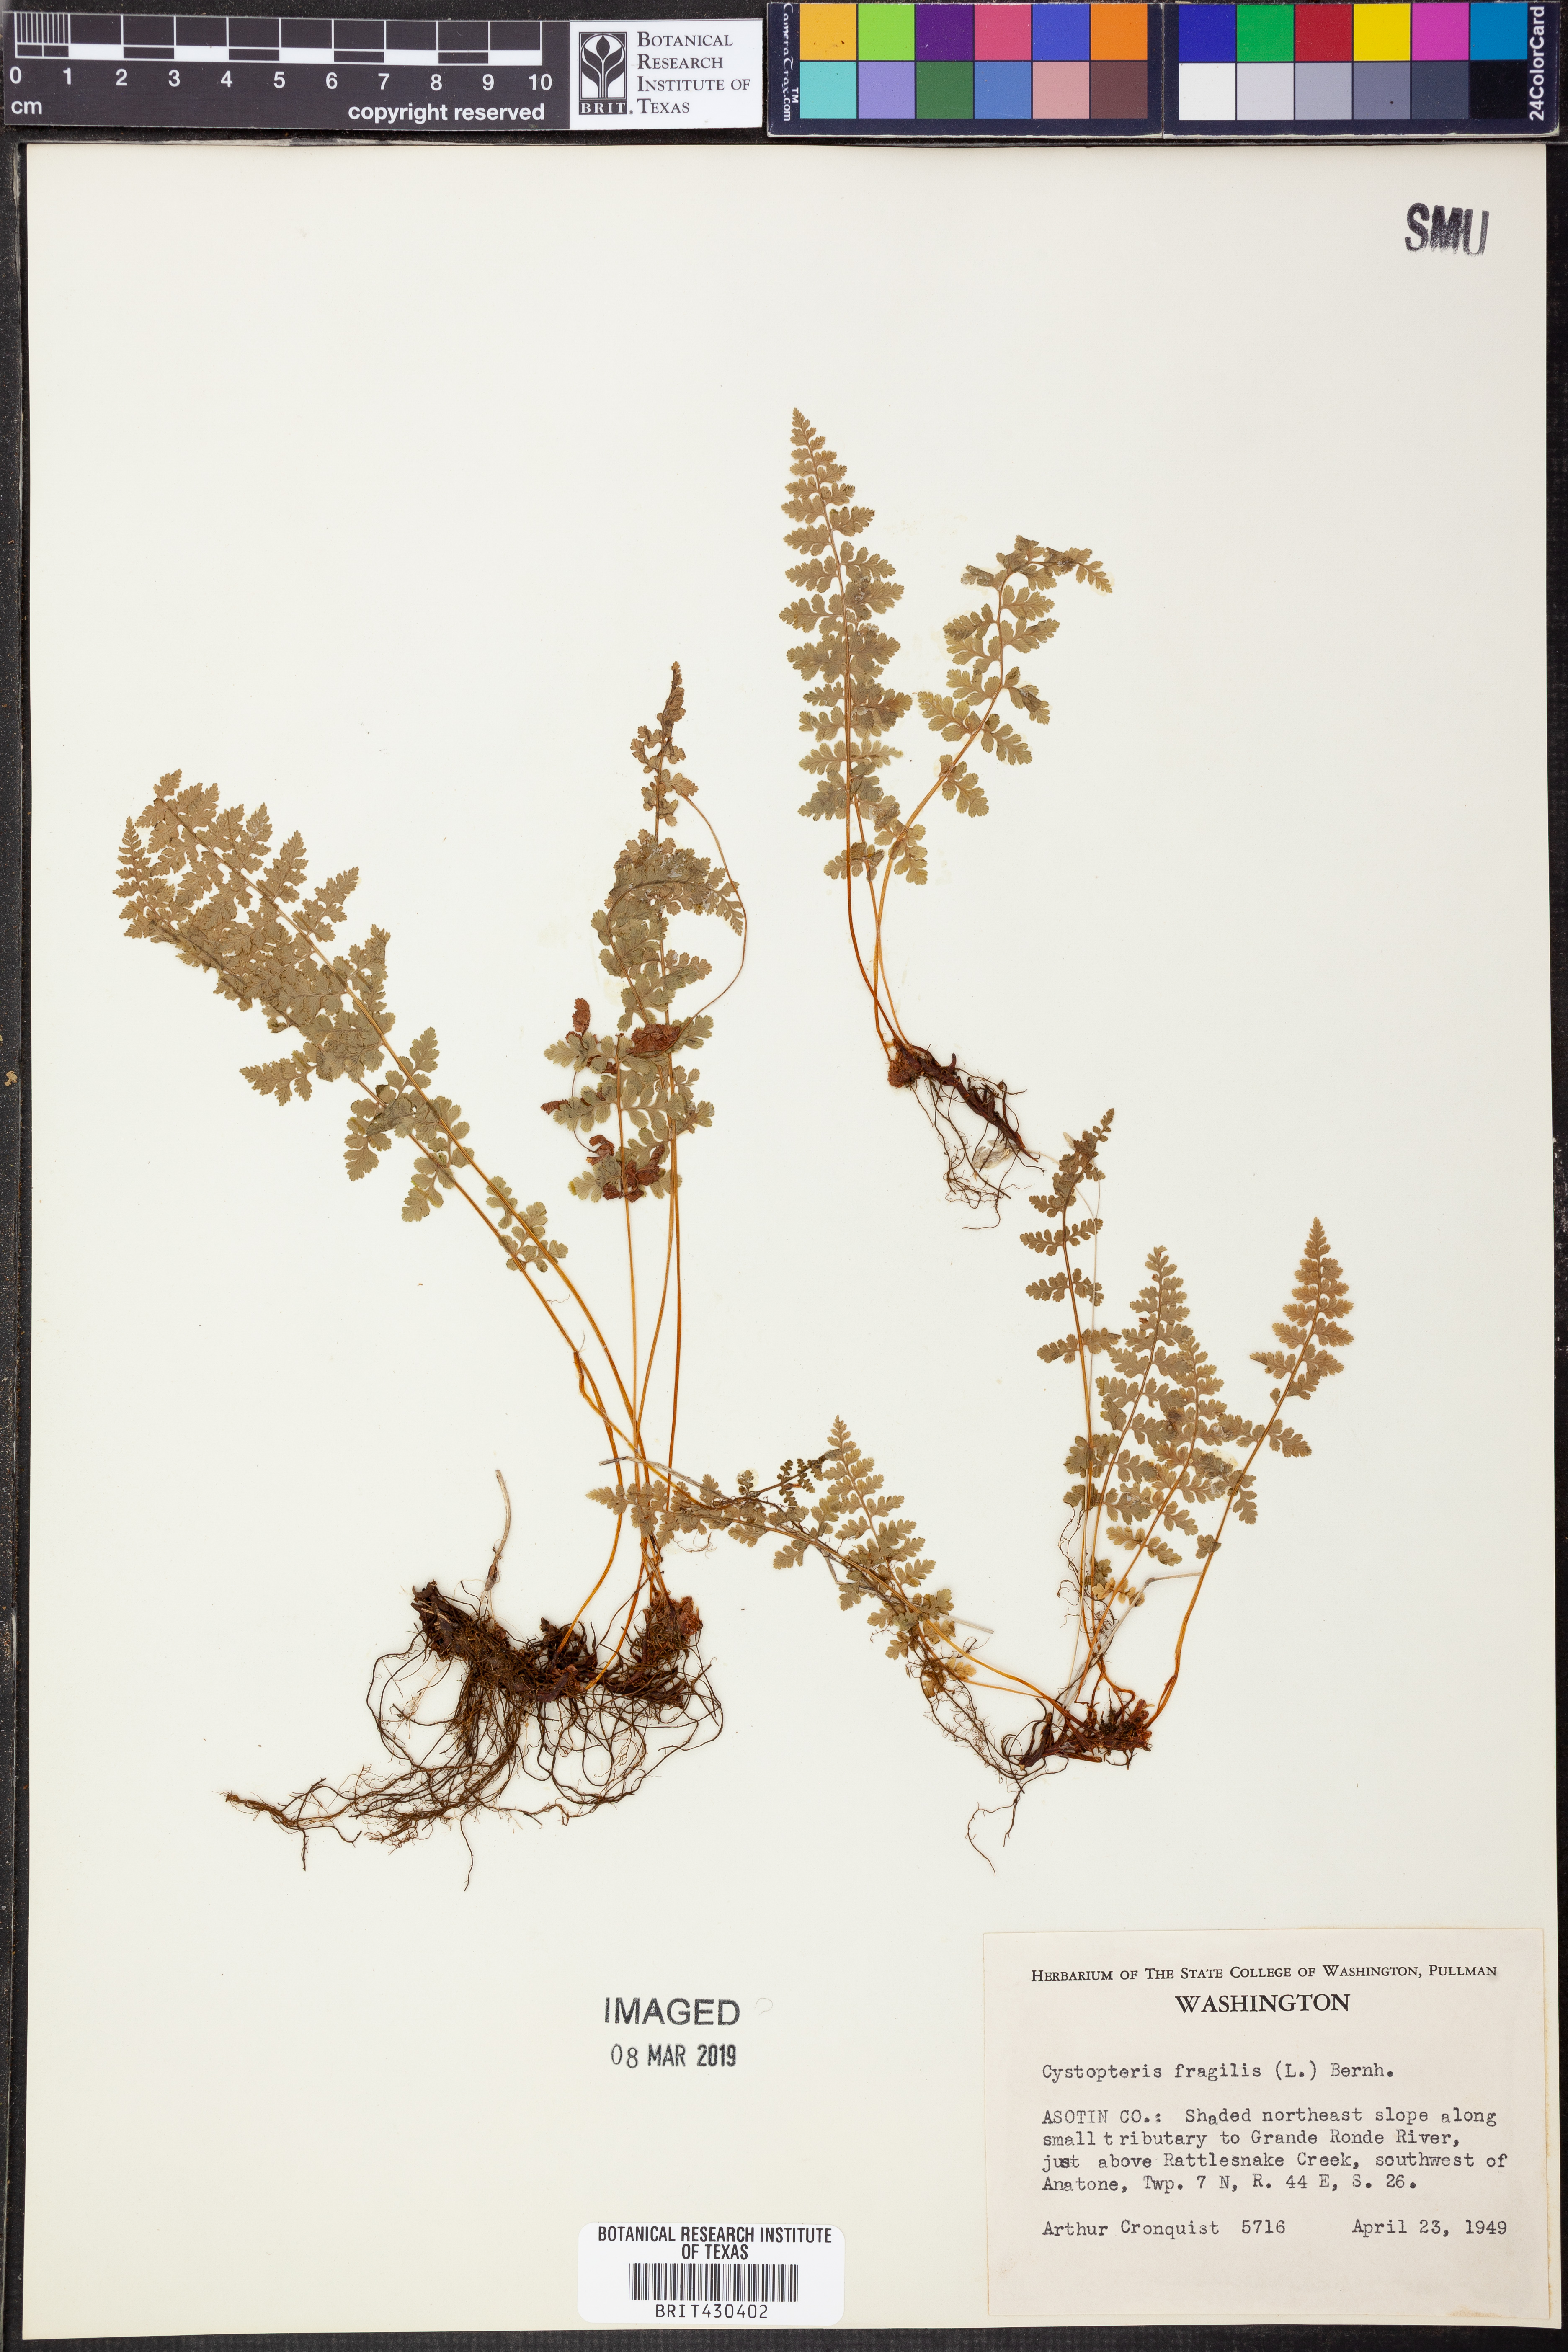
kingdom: Plantae
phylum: Tracheophyta
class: Polypodiopsida
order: Polypodiales
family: Cystopteridaceae
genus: Cystopteris
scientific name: Cystopteris fragilis
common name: Brittle bladder fern
